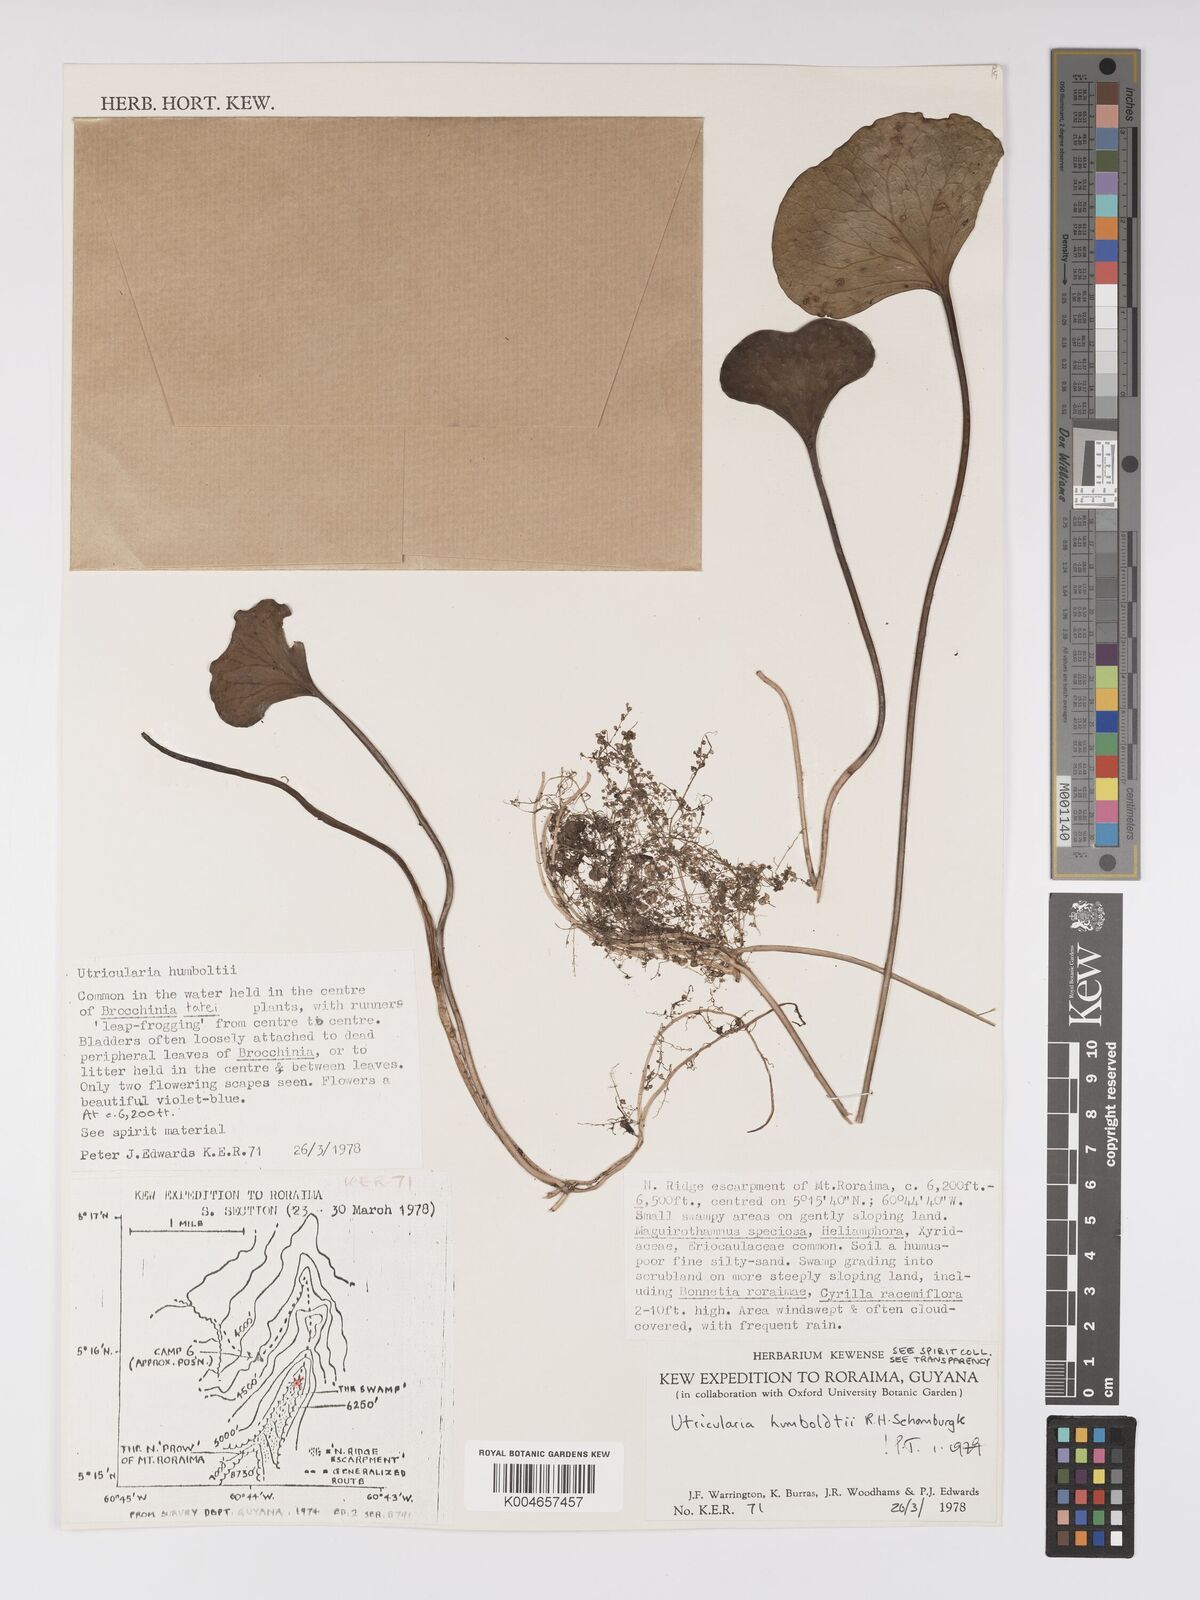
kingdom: Plantae
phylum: Tracheophyta
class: Magnoliopsida
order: Lamiales
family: Lentibulariaceae
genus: Utricularia
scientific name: Utricularia humboldtii
